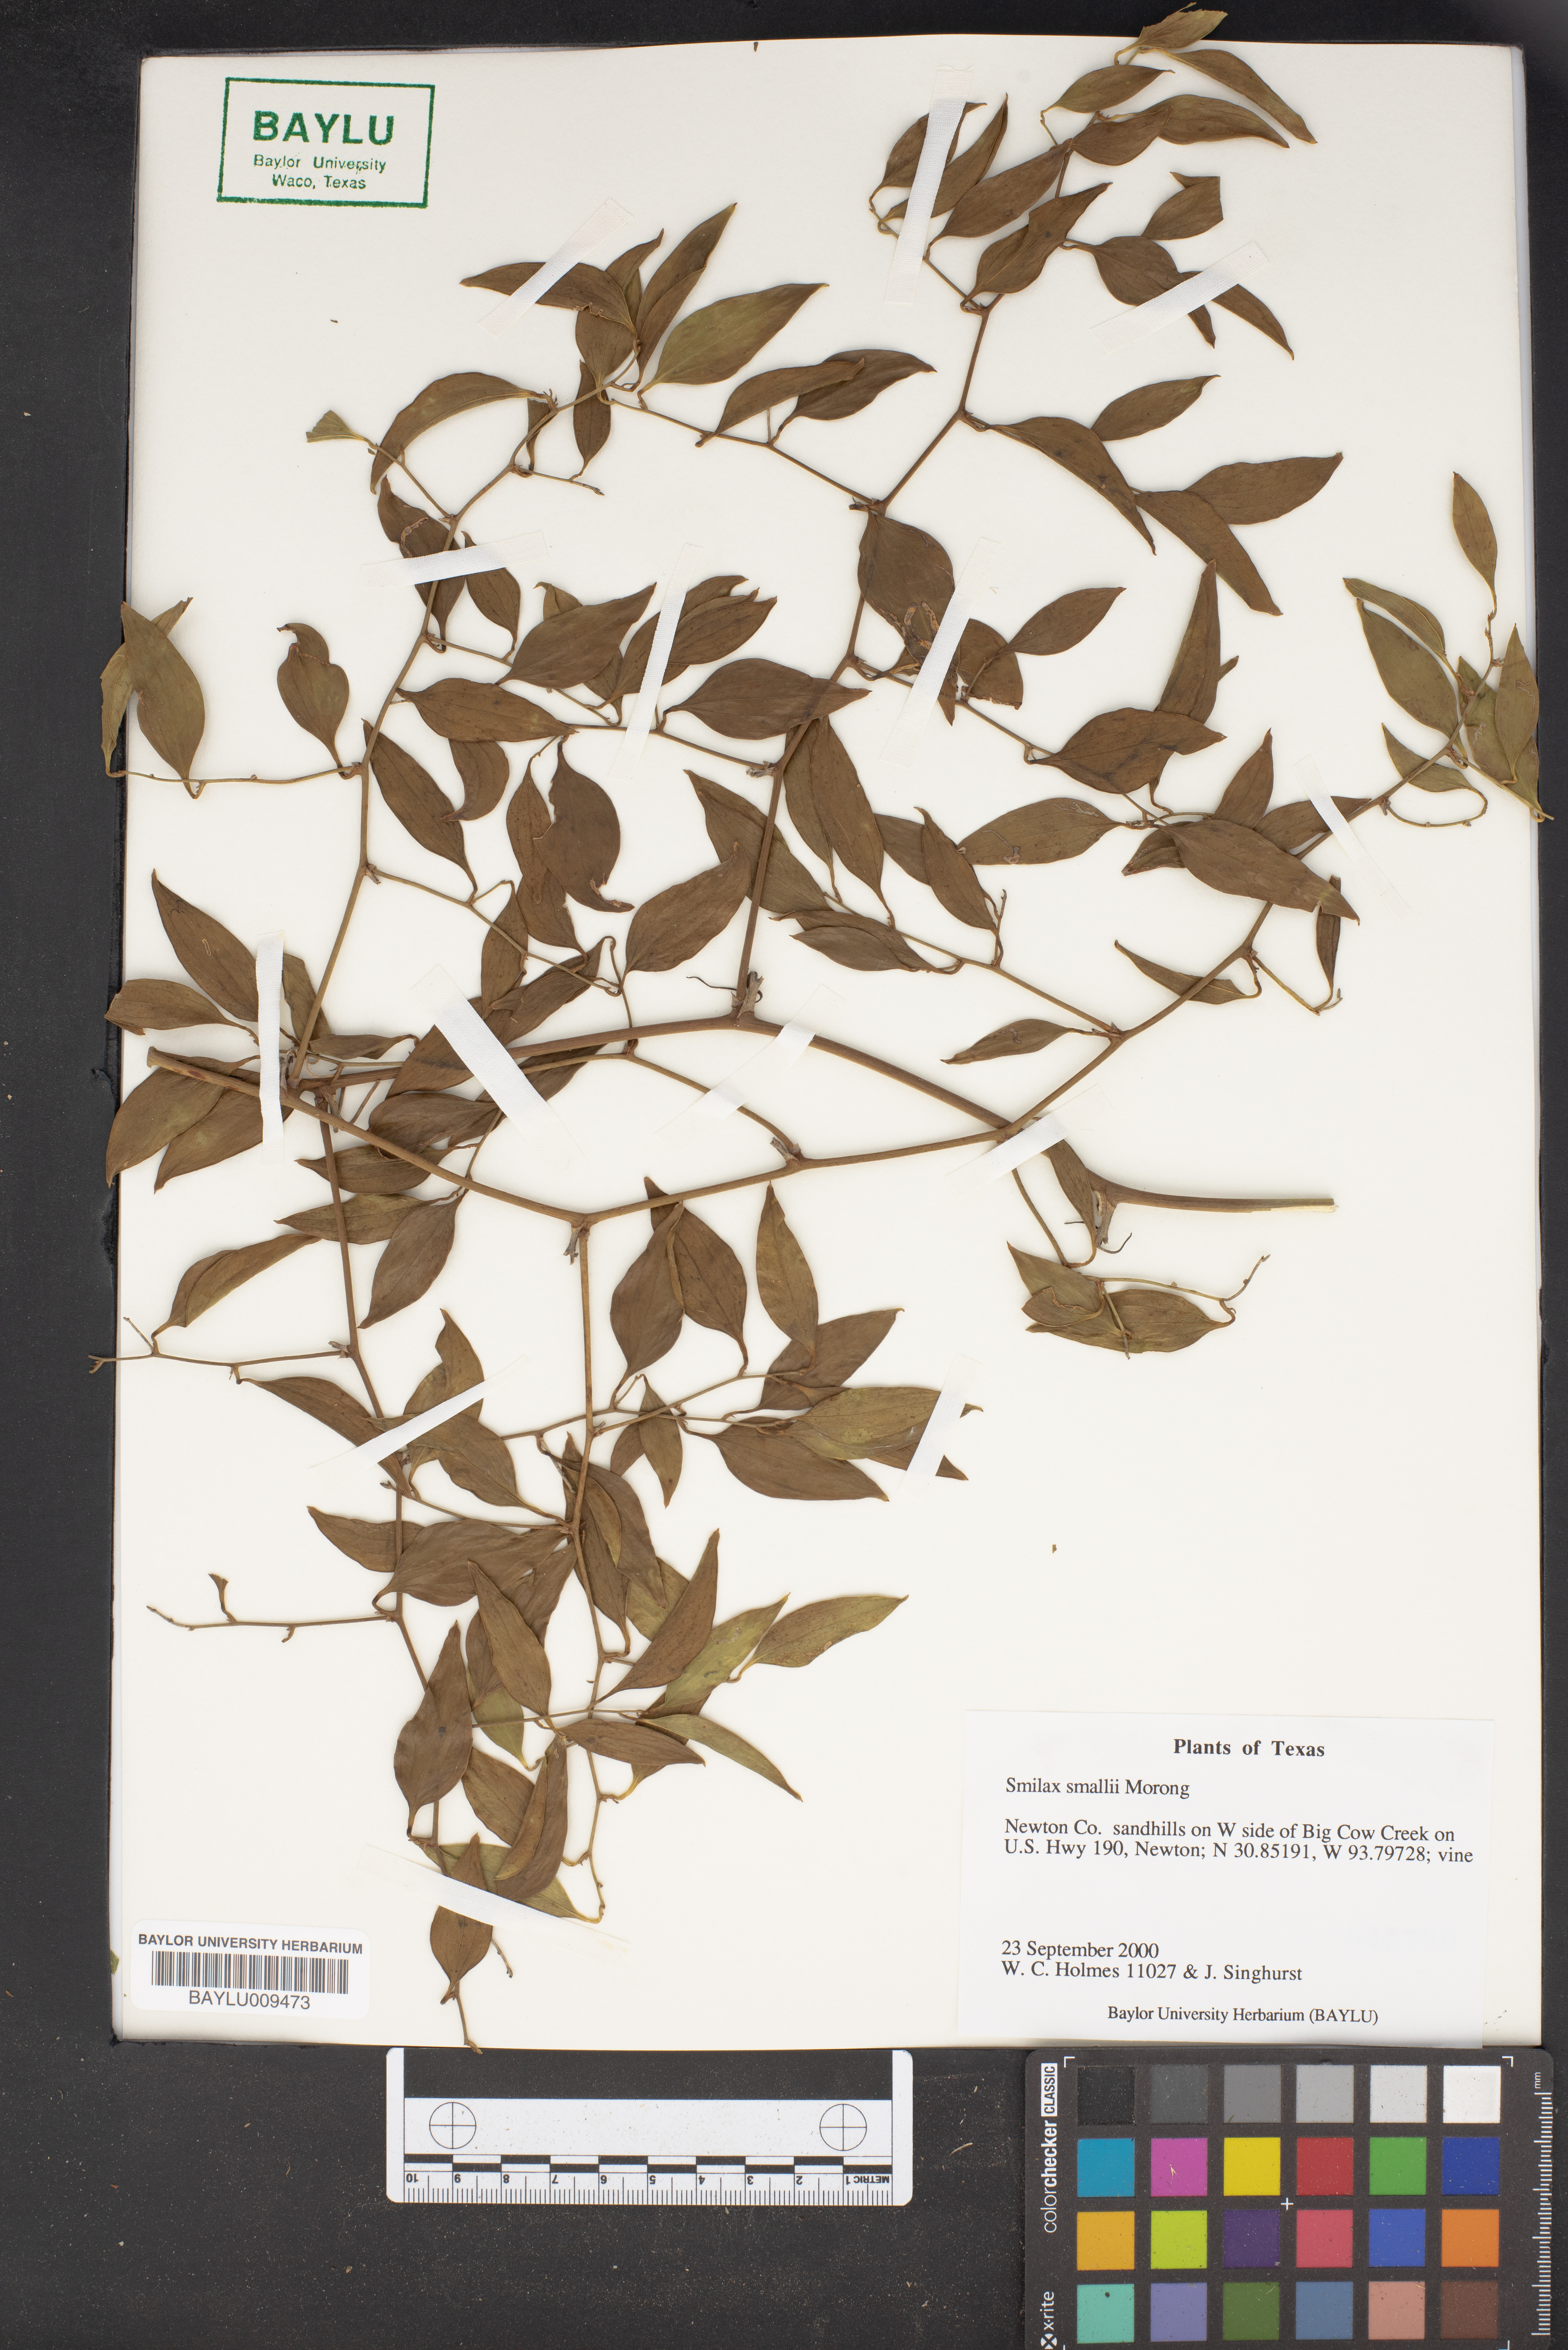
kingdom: Plantae
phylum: Tracheophyta
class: Liliopsida
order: Liliales
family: Smilacaceae
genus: Smilax
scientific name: Smilax maritima
